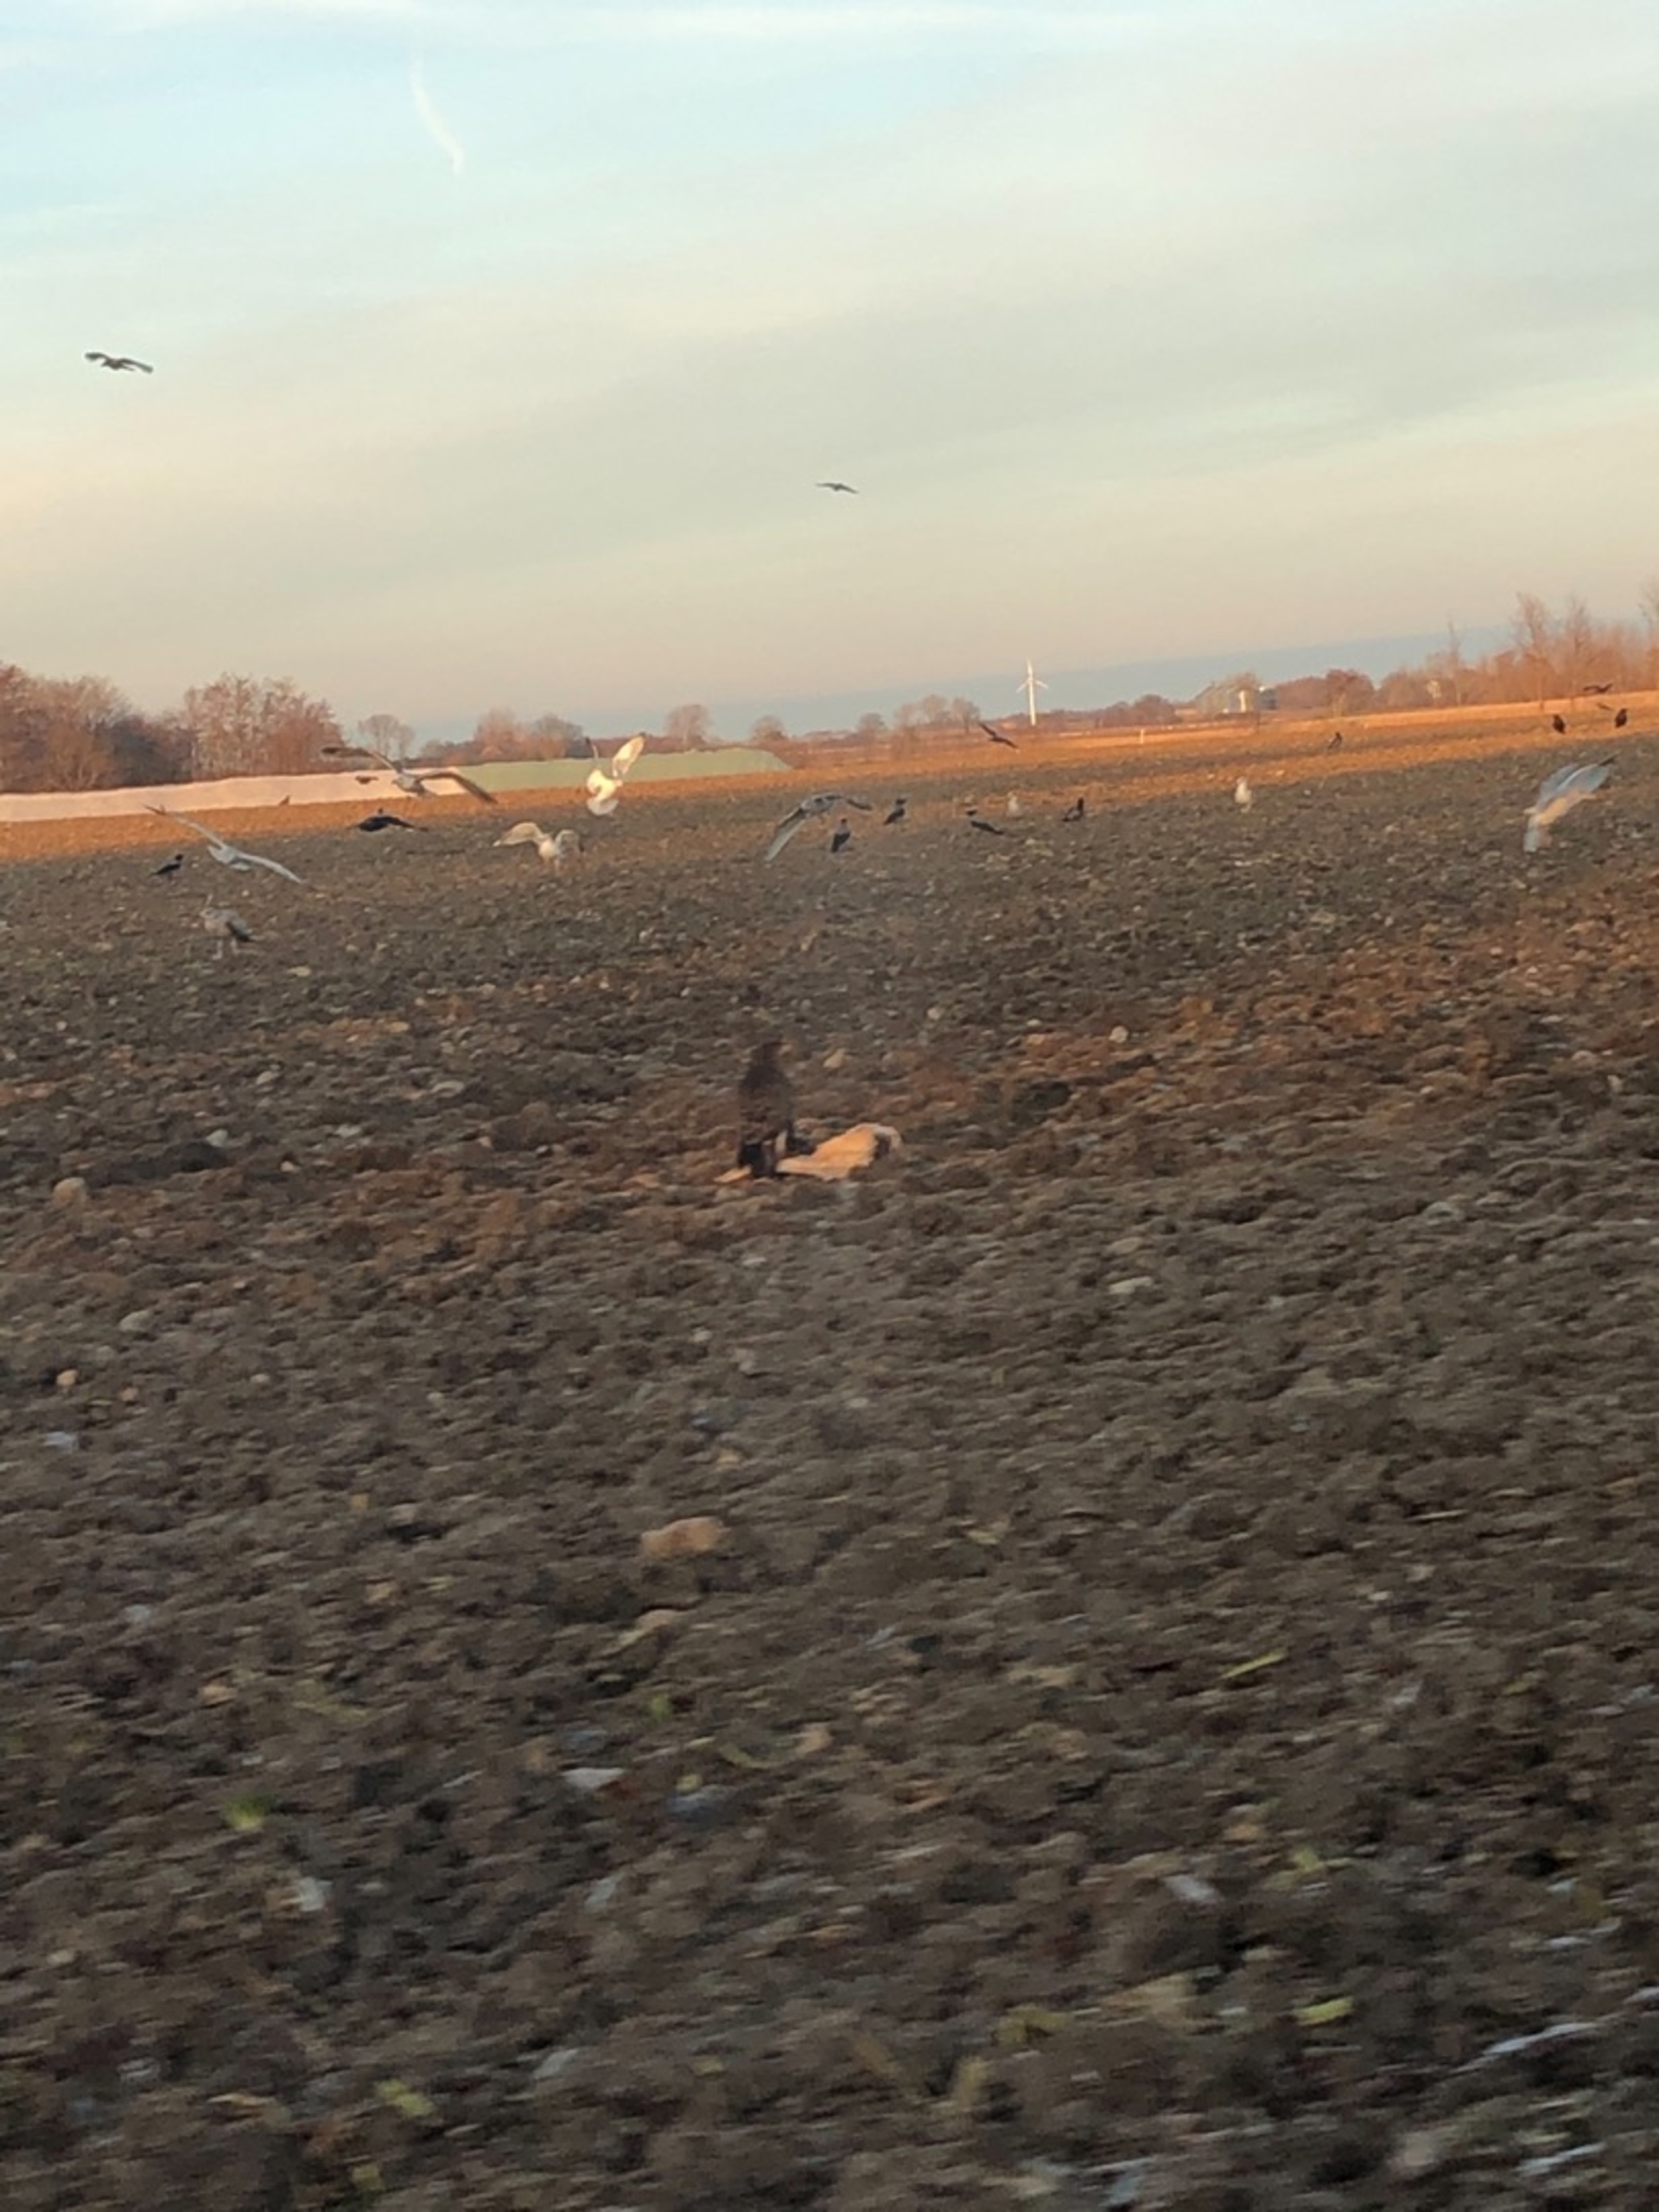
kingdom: Animalia
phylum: Chordata
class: Aves
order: Accipitriformes
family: Accipitridae
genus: Buteo
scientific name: Buteo buteo
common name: Musvåge
